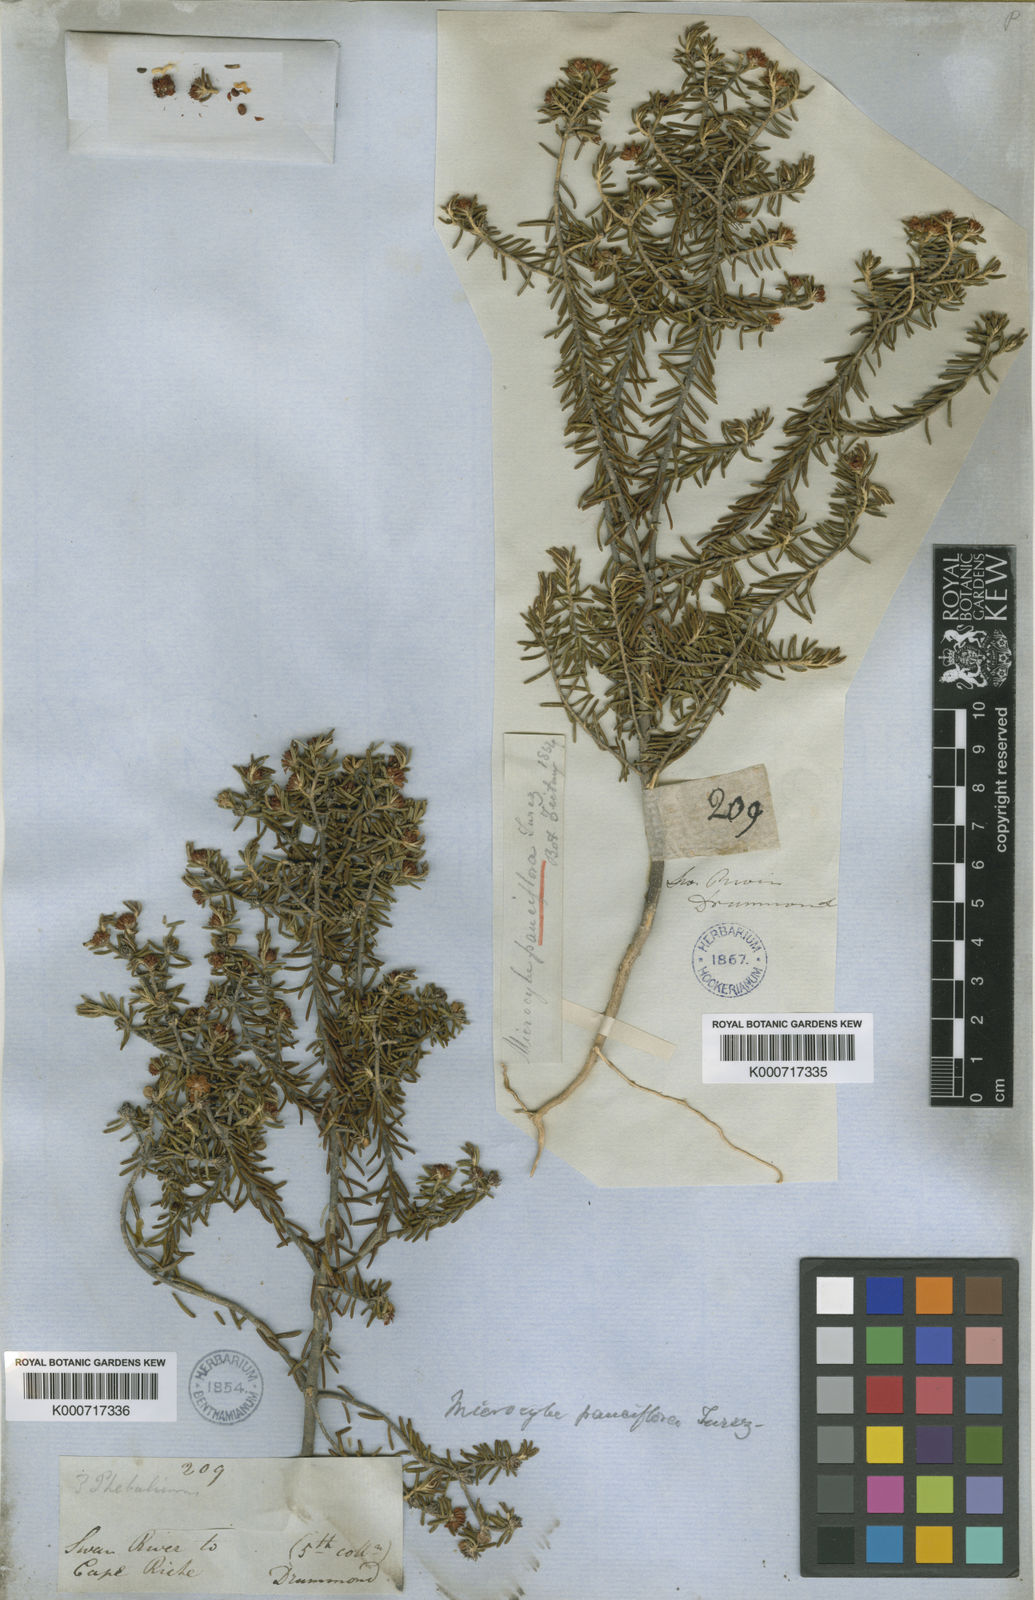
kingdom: Plantae
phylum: Tracheophyta
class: Magnoliopsida
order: Sapindales
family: Rutaceae
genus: Microcybe
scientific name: Microcybe pauciflora
